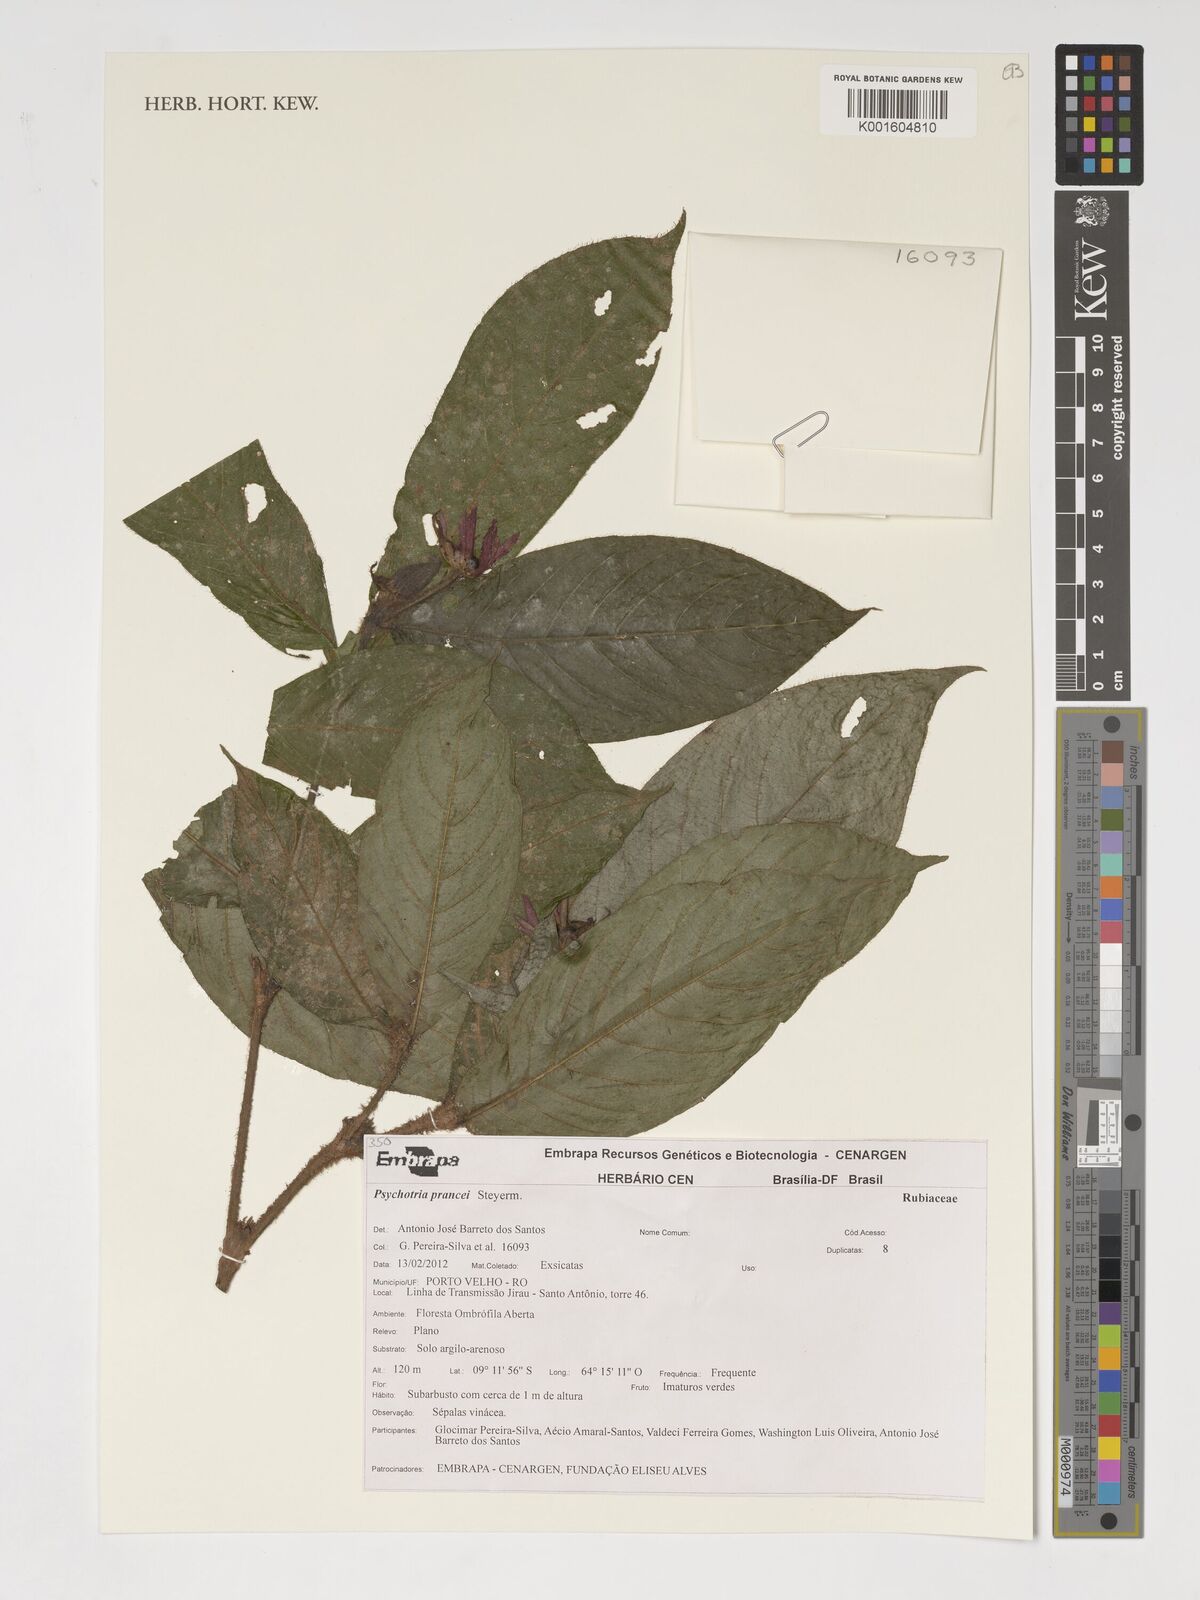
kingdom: Plantae
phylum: Tracheophyta
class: Magnoliopsida
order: Gentianales
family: Rubiaceae
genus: Palicourea
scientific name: Palicourea prancei
